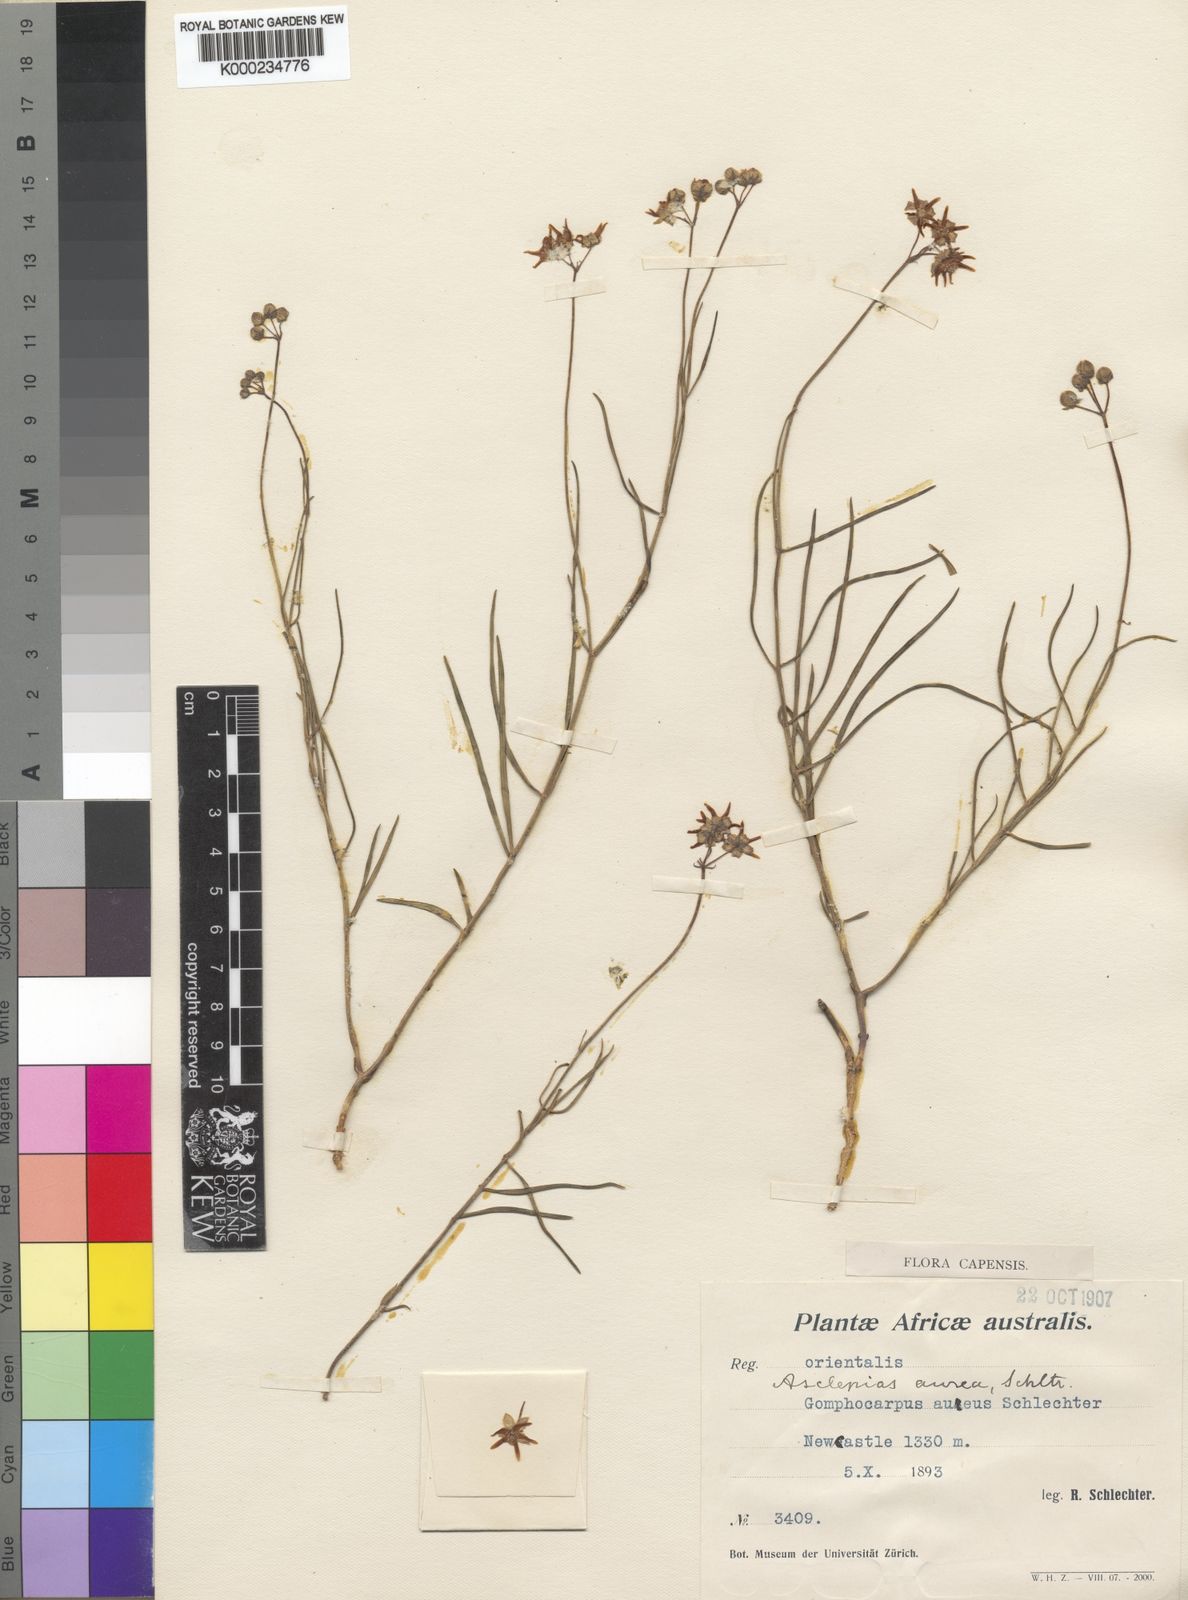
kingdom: Plantae
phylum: Tracheophyta
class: Magnoliopsida
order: Gentianales
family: Apocynaceae
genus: Asclepias
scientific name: Asclepias aurea
